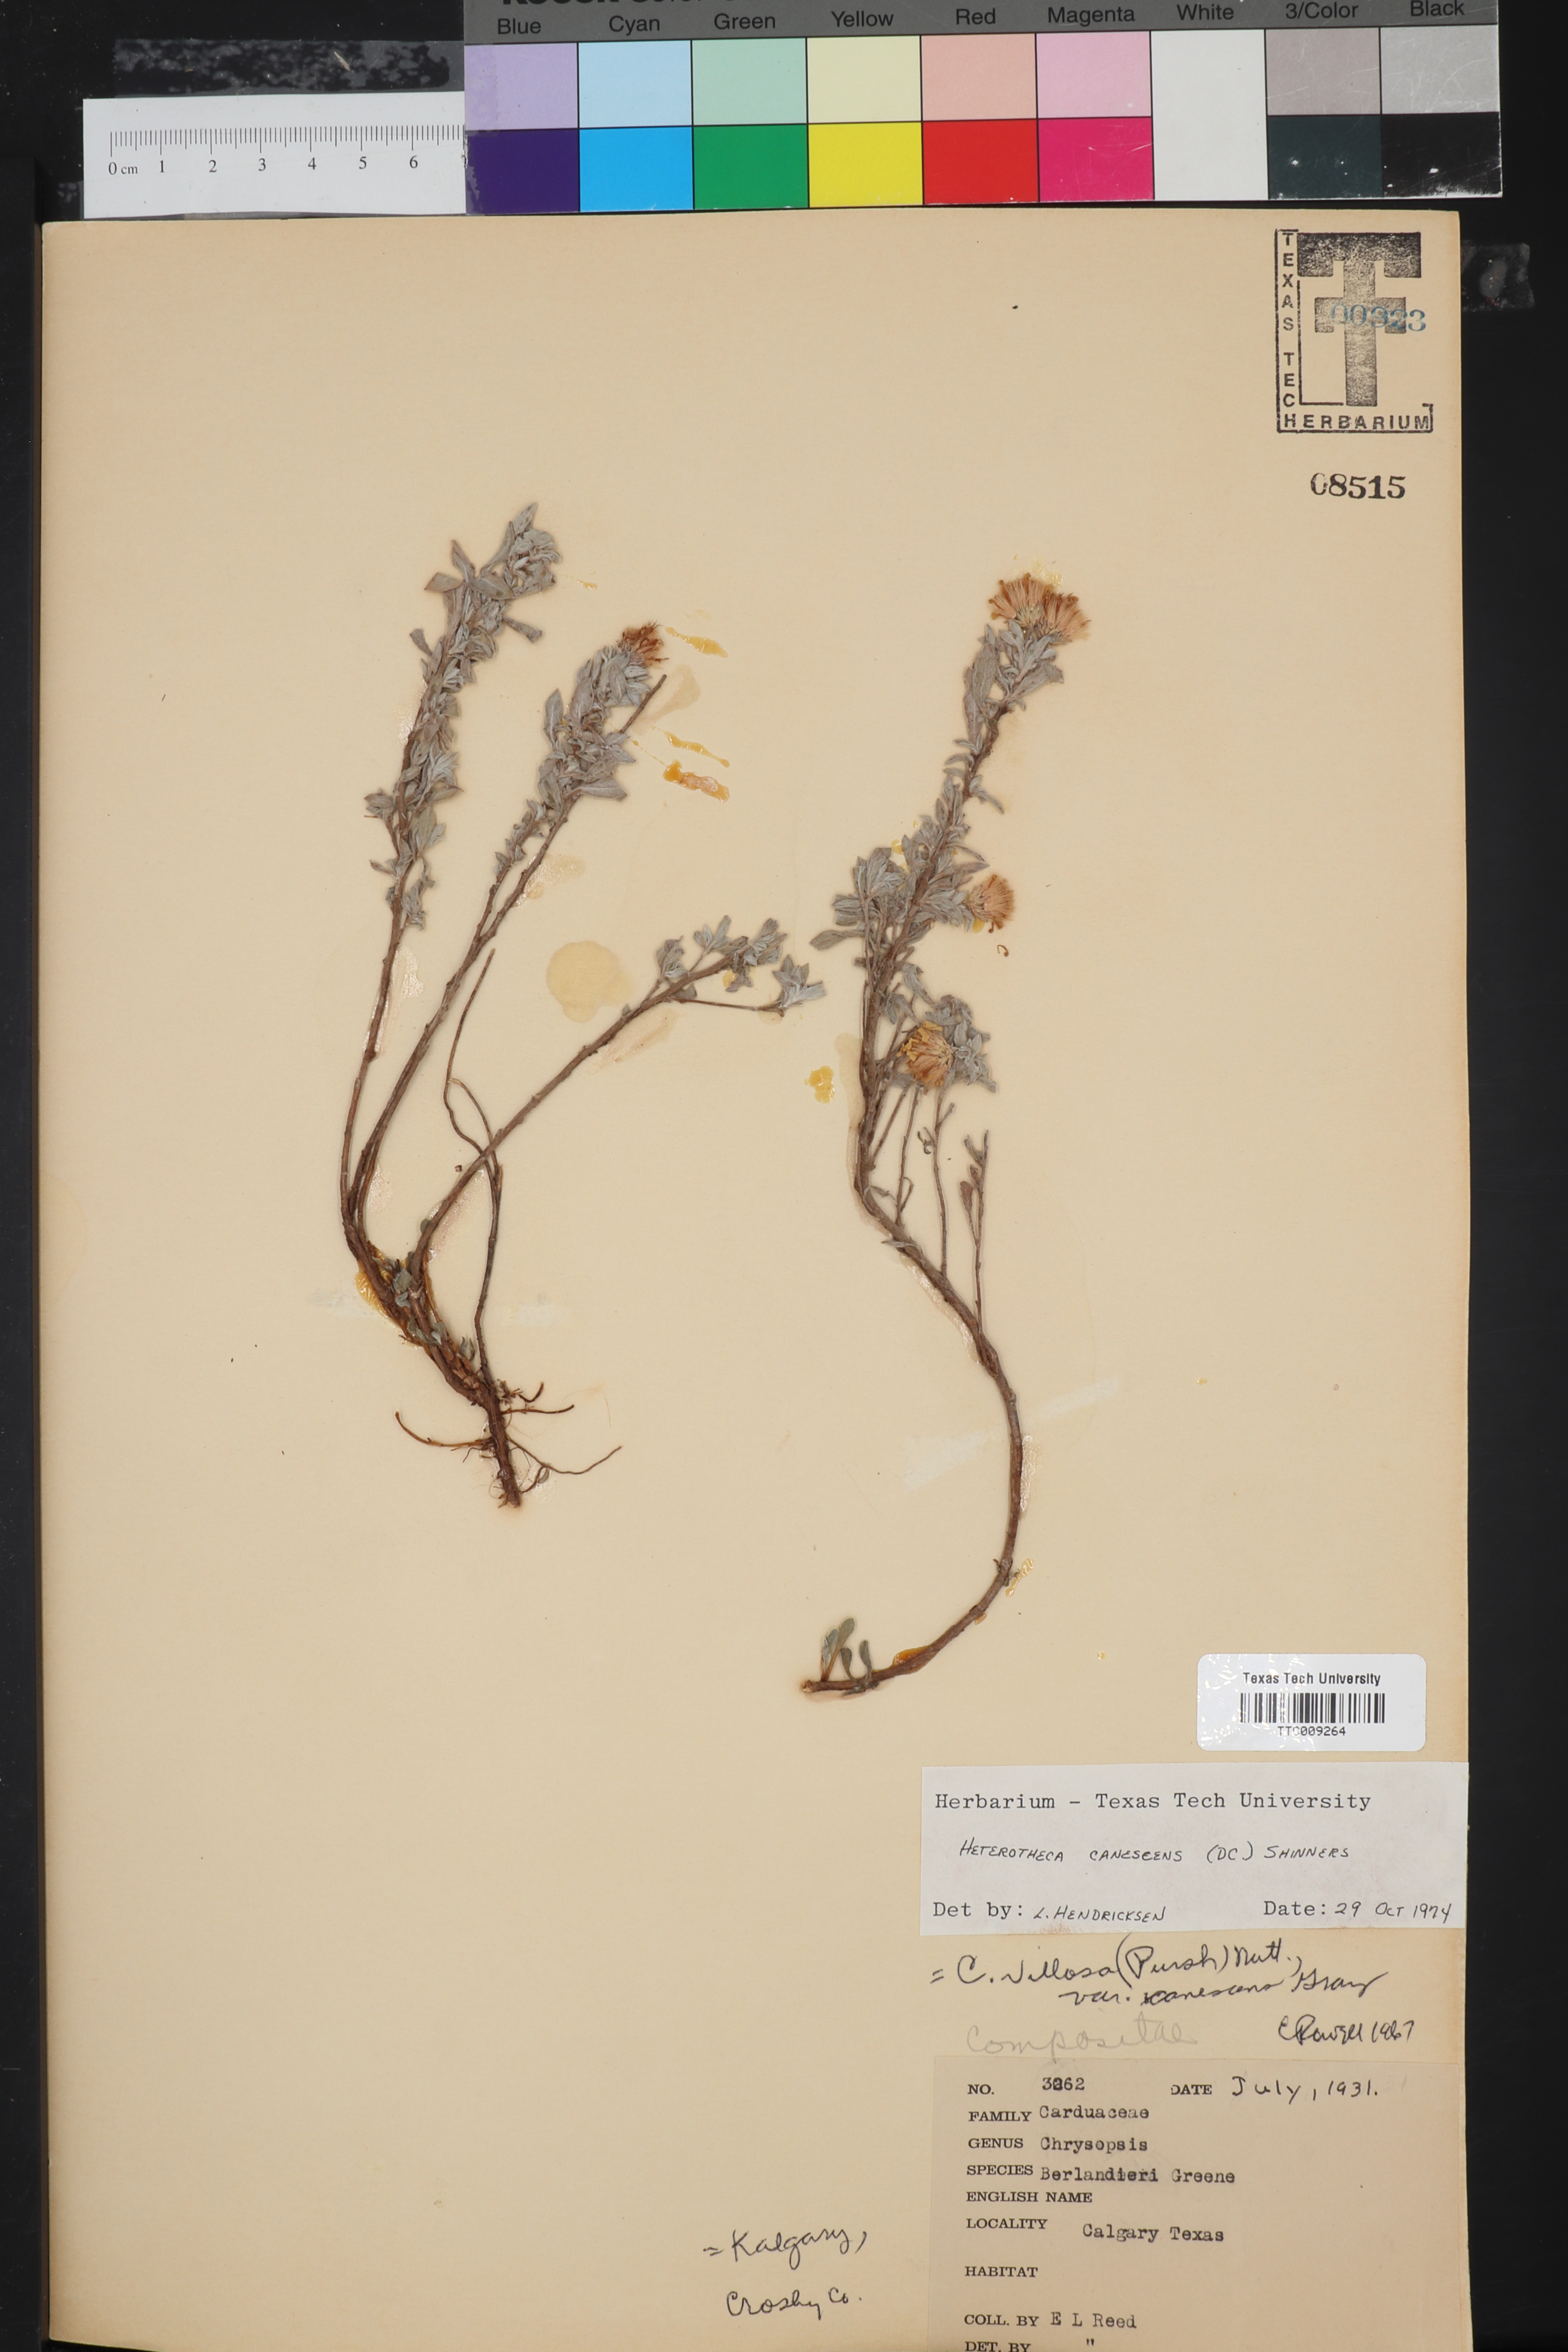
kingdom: Plantae
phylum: Tracheophyta
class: Magnoliopsida
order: Asterales
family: Asteraceae
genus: Heterotheca
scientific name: Heterotheca canescens
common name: Hoary golden-aster
